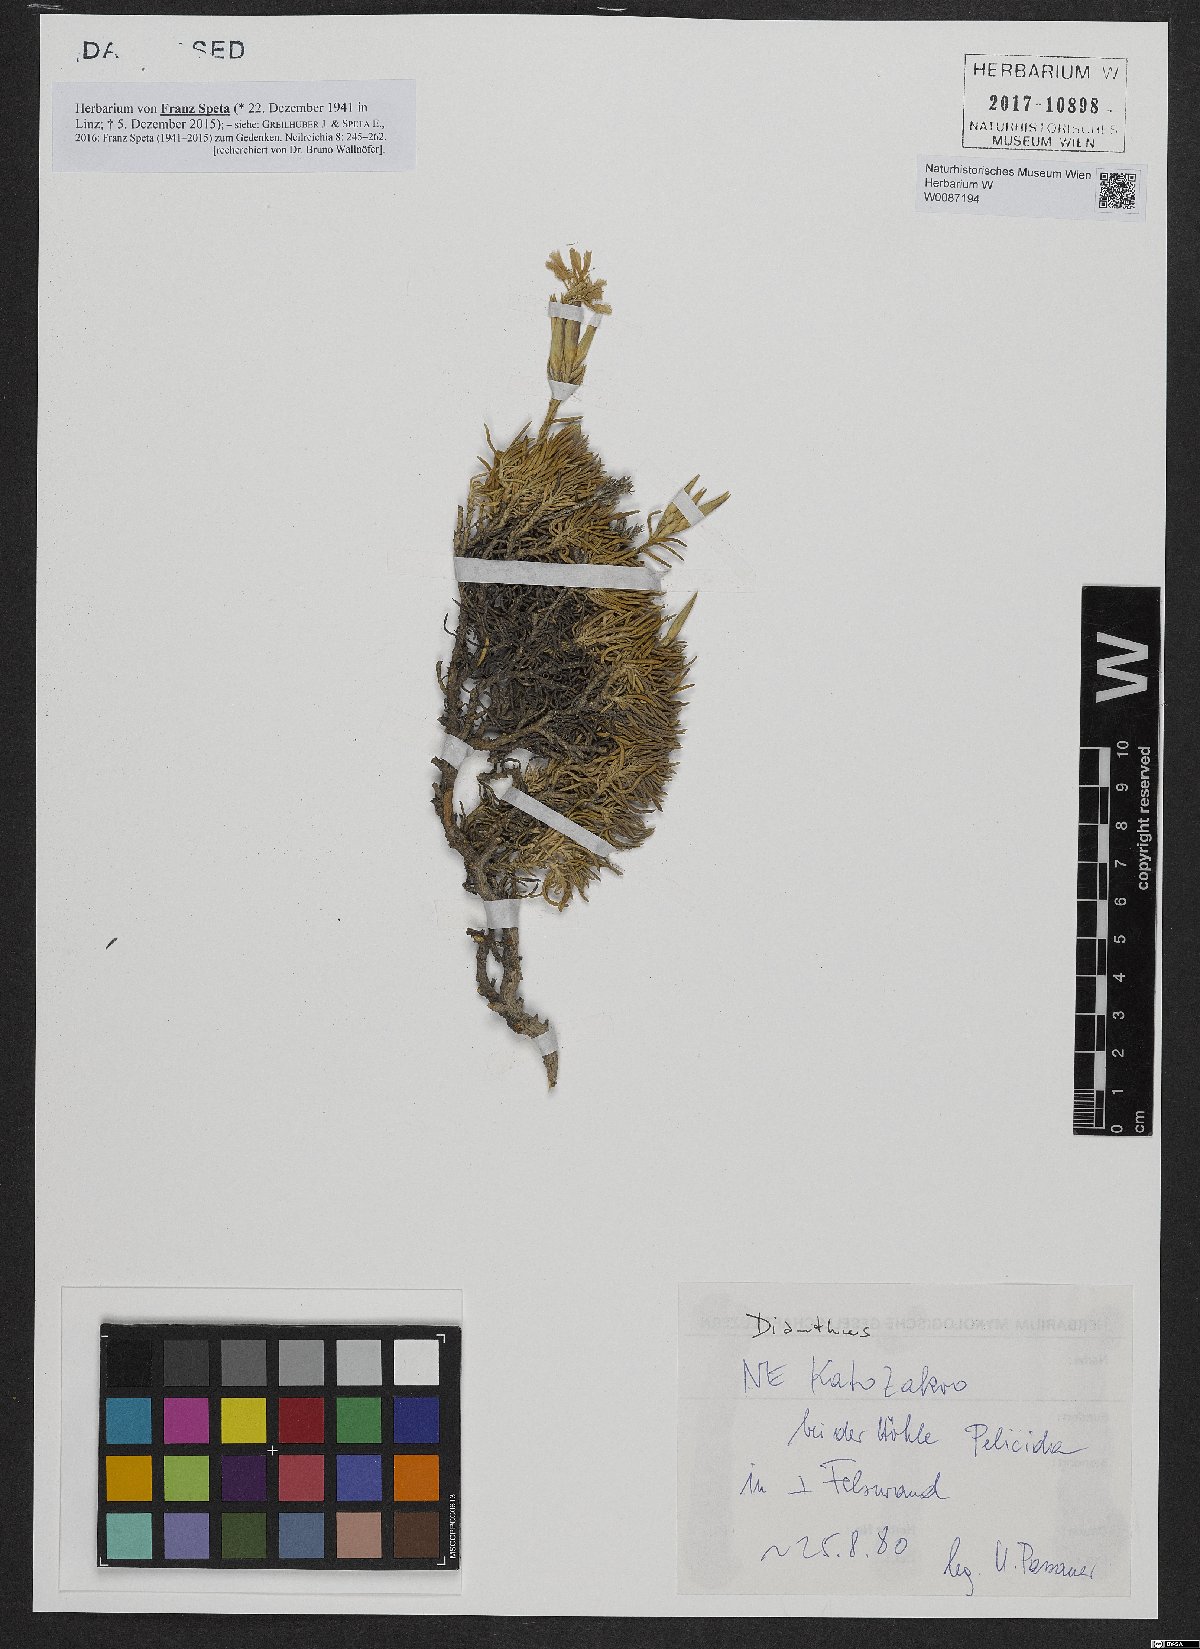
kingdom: Plantae
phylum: Tracheophyta
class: Magnoliopsida
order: Caryophyllales
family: Caryophyllaceae
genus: Dianthus
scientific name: Dianthus
